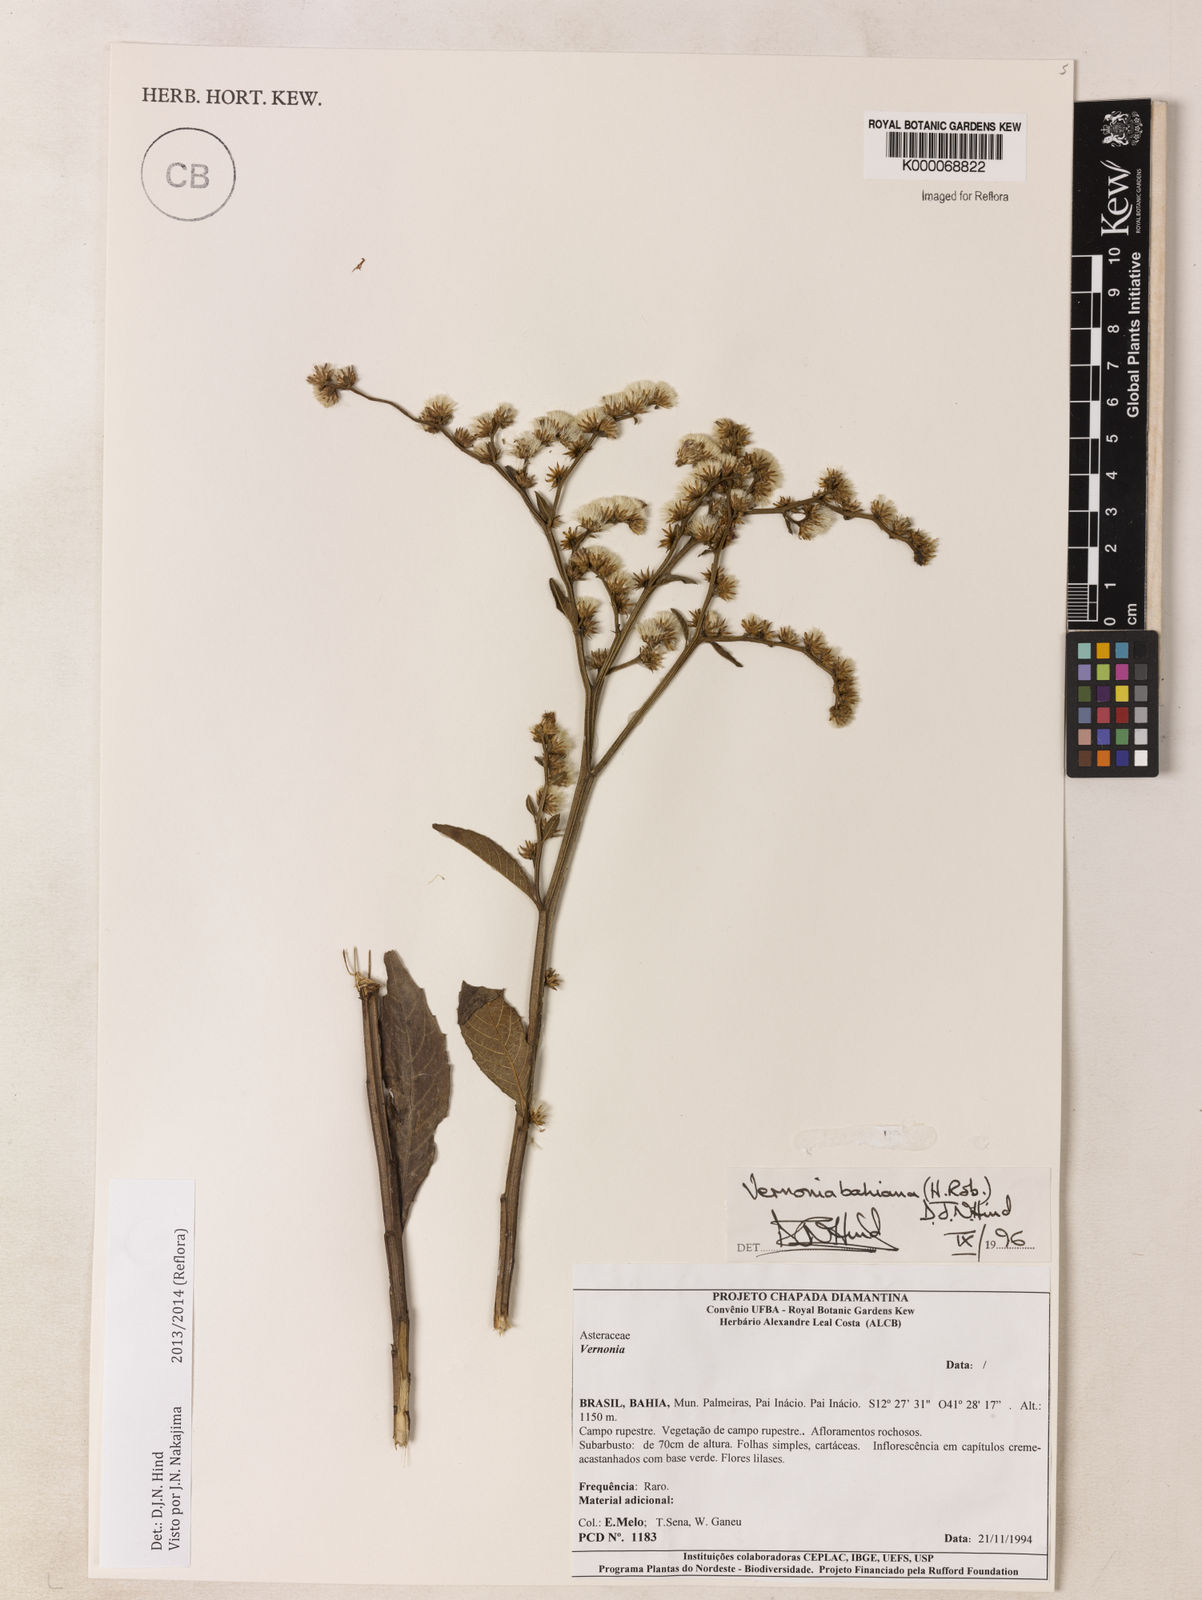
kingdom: Plantae
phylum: Tracheophyta
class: Magnoliopsida
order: Asterales
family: Asteraceae
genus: Lepidaploa
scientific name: Lepidaploa bahiana
